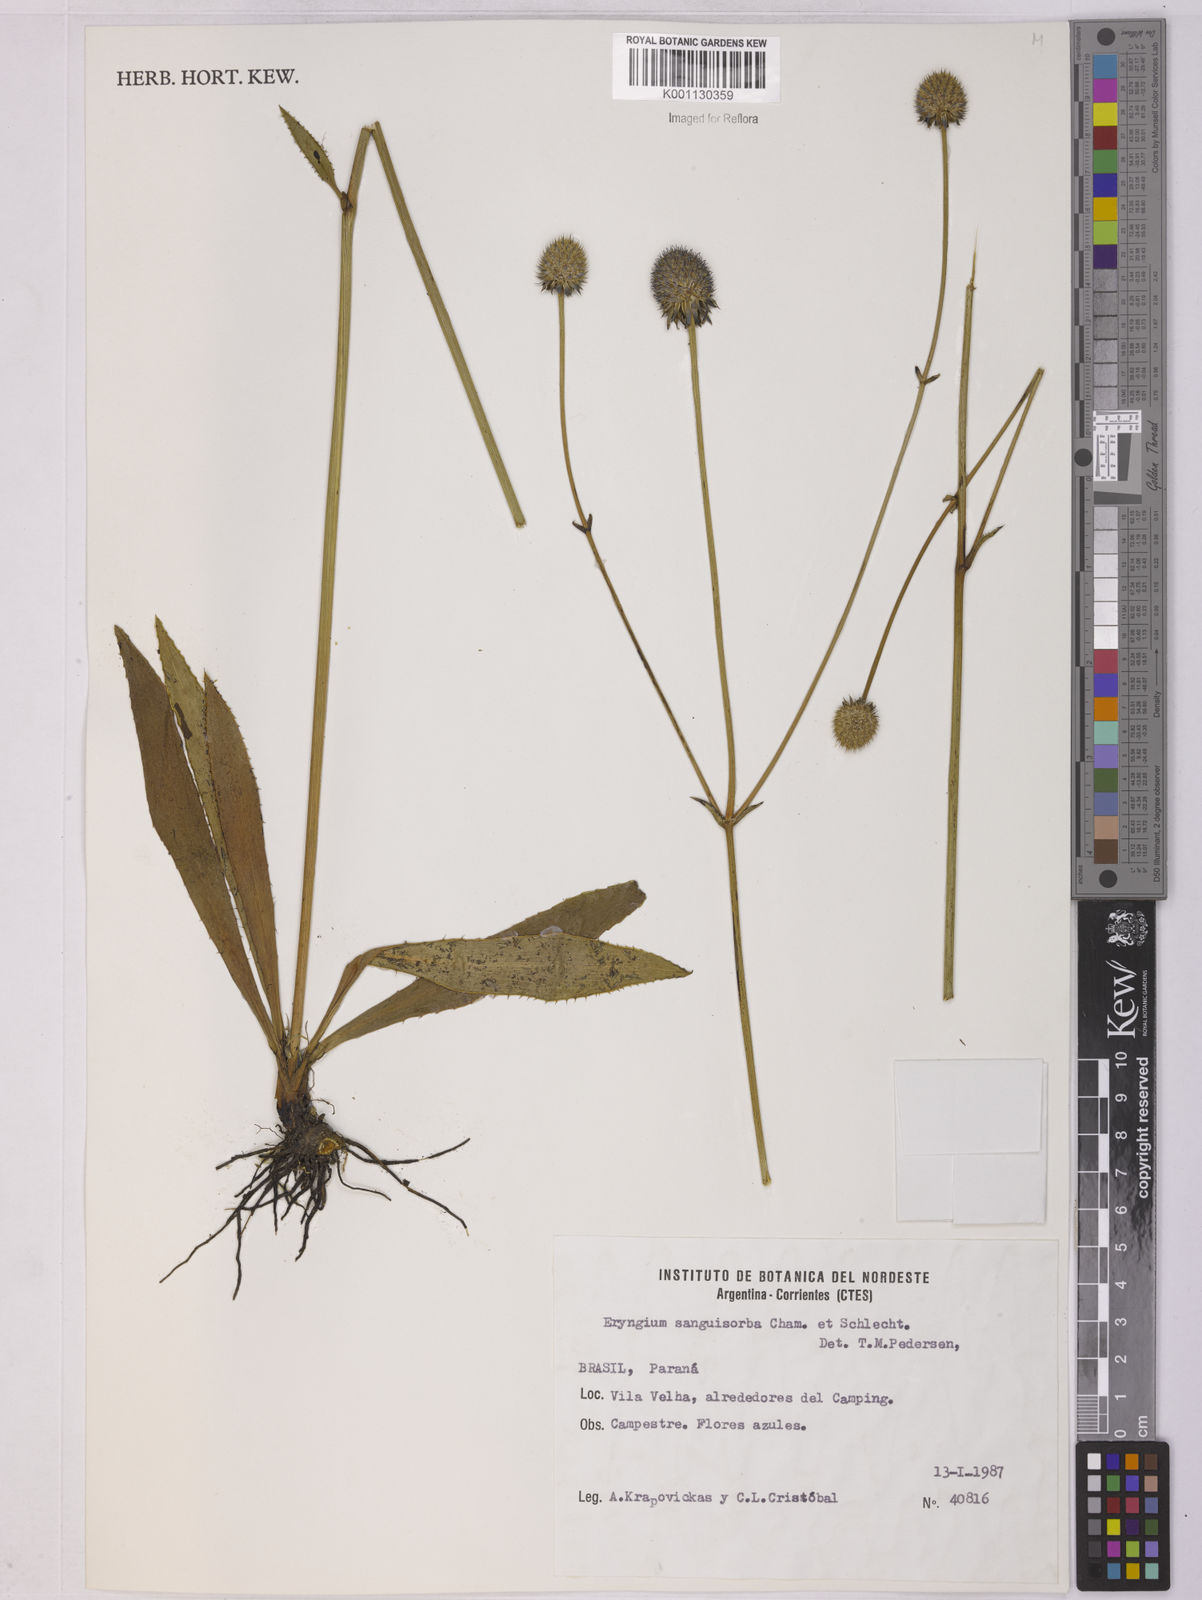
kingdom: Plantae
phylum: Tracheophyta
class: Magnoliopsida
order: Apiales
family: Apiaceae
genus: Eryngium
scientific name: Eryngium sanguisorba
